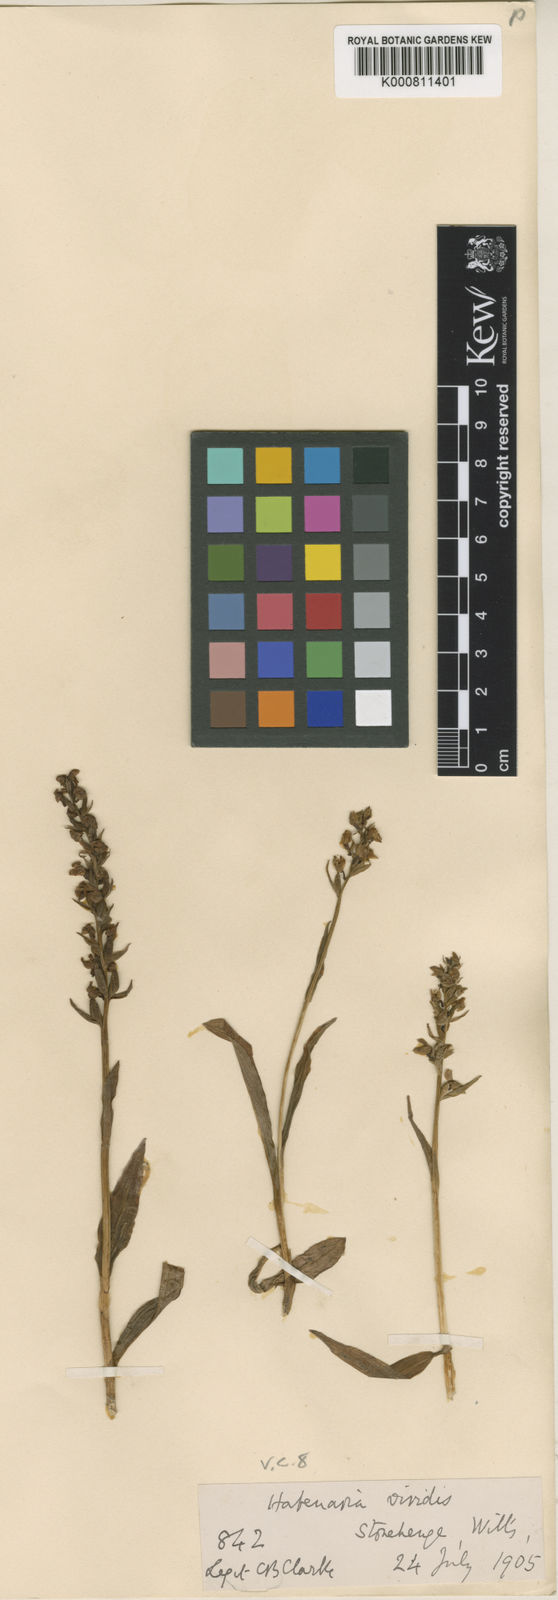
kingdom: Plantae
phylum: Tracheophyta
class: Liliopsida
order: Asparagales
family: Orchidaceae
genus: Dactylorhiza
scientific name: Dactylorhiza viridis
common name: Longbract frog orchid
